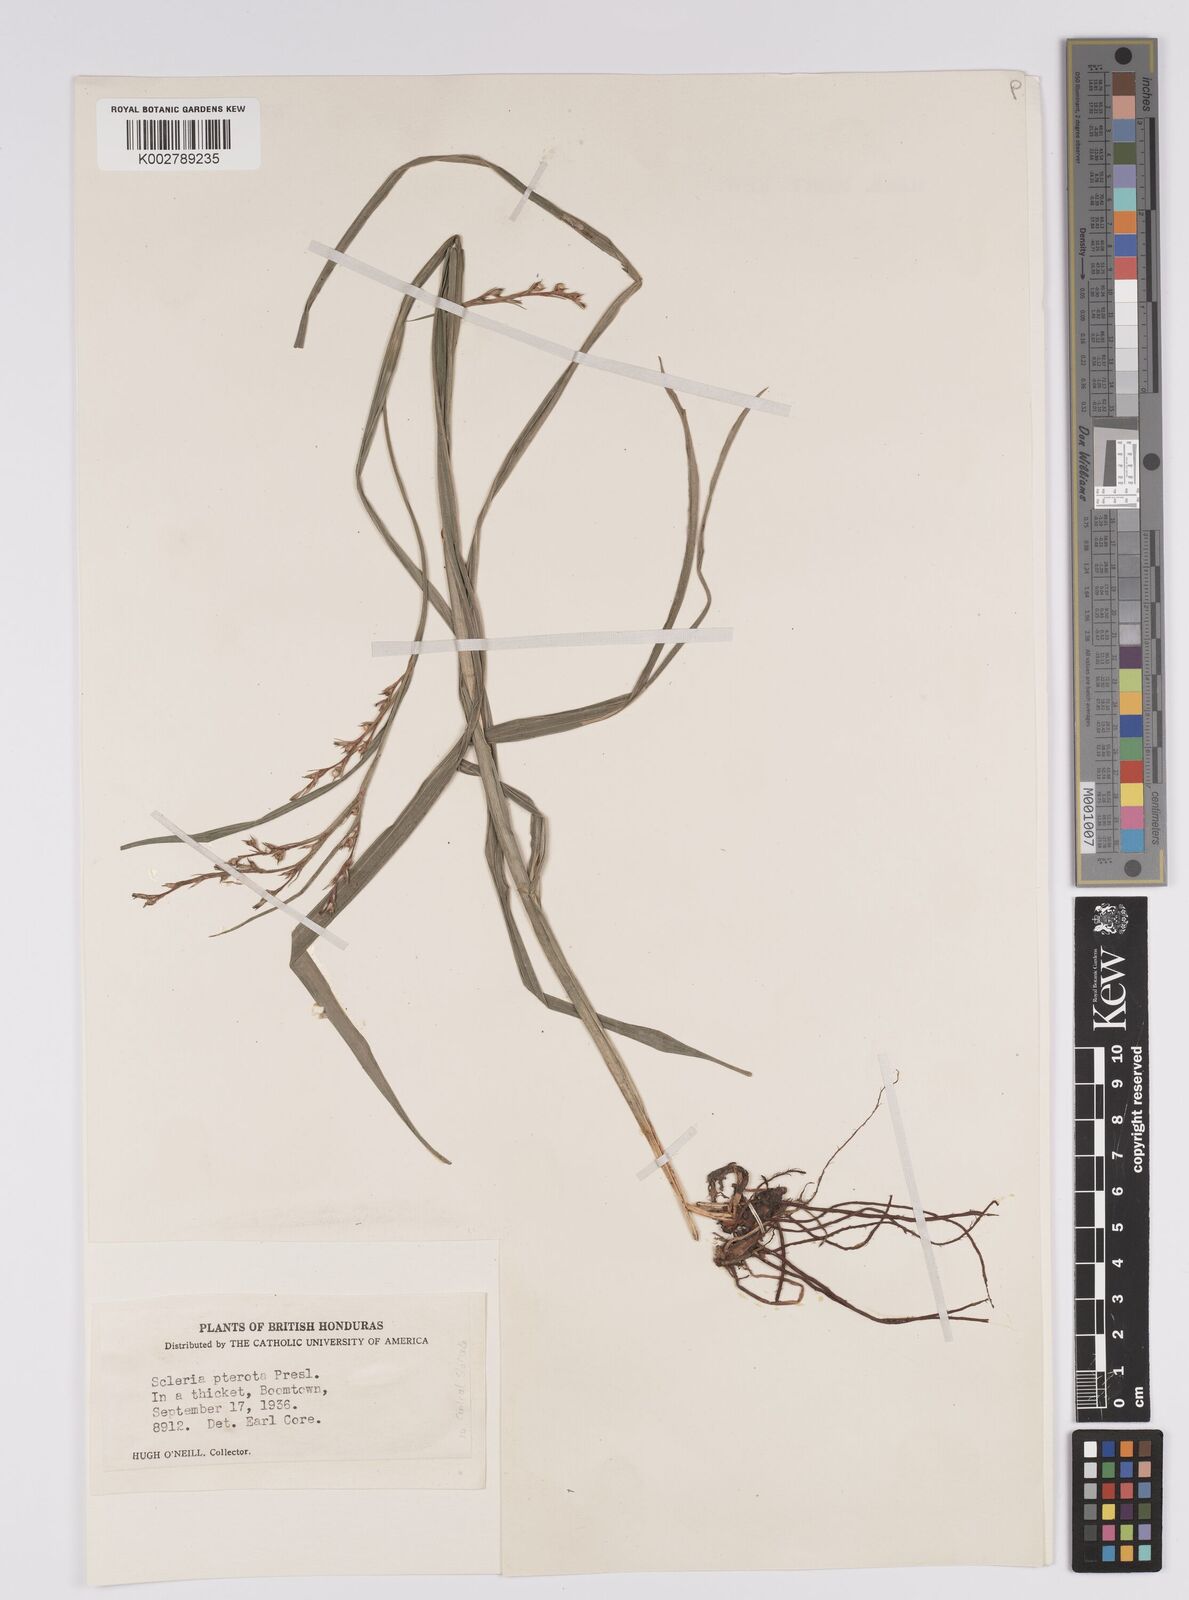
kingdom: Plantae
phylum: Tracheophyta
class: Liliopsida
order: Poales
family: Cyperaceae
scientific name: Cyperaceae
